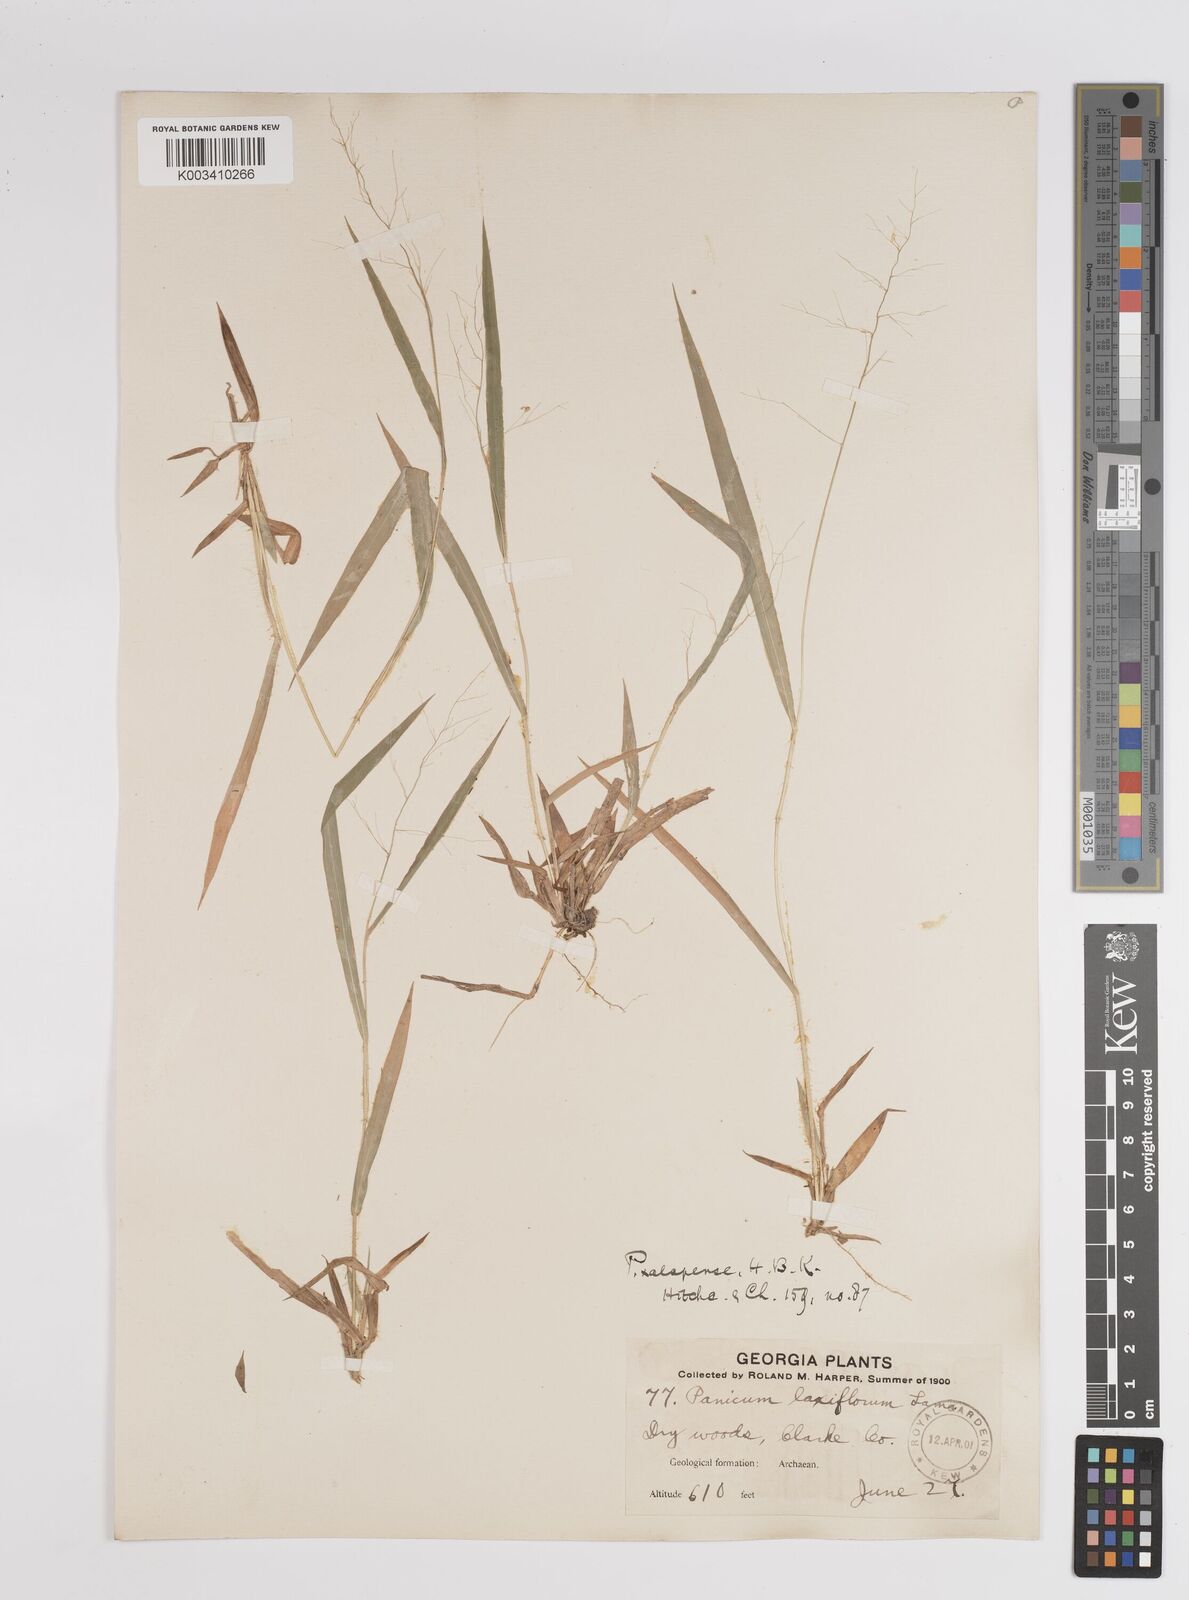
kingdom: Plantae
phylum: Tracheophyta
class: Liliopsida
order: Poales
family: Poaceae
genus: Dichanthelium
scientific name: Dichanthelium laxiflorum
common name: Soft-tuft panic grass
